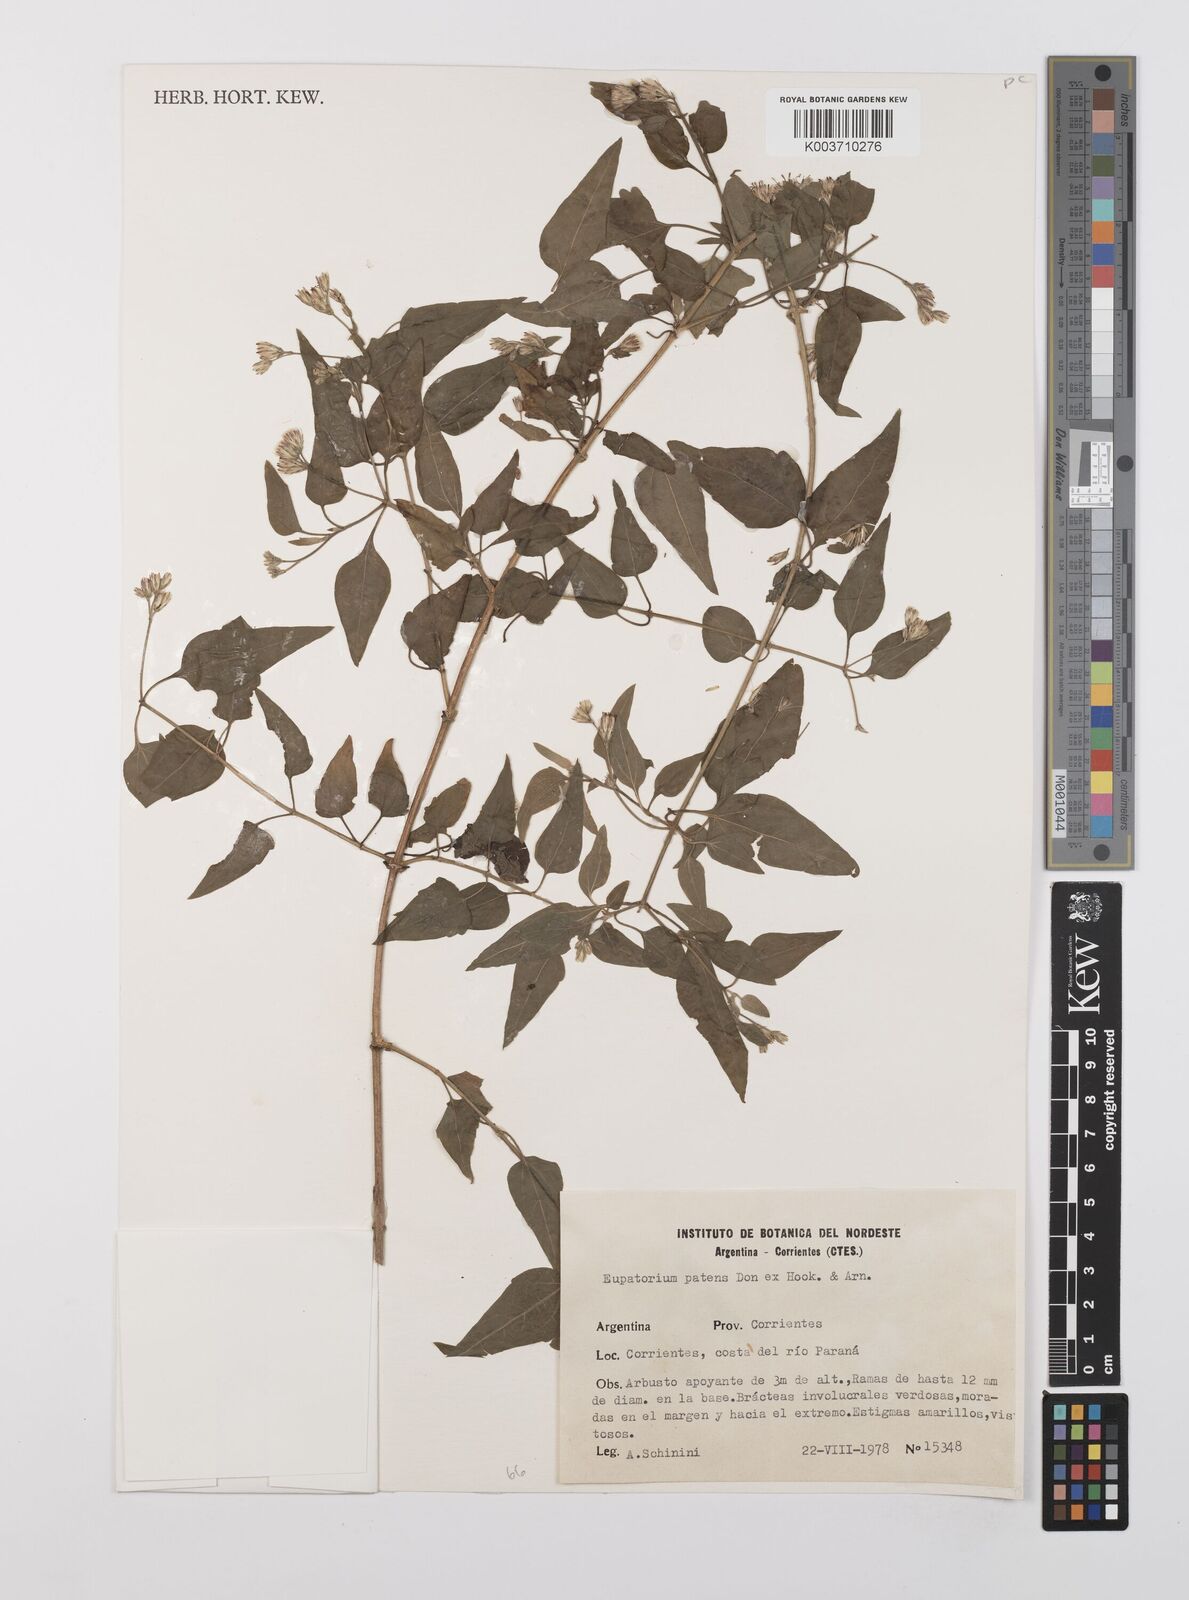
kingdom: Plantae
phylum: Tracheophyta
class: Magnoliopsida
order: Asterales
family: Asteraceae
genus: Austrobrickellia
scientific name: Austrobrickellia patens
